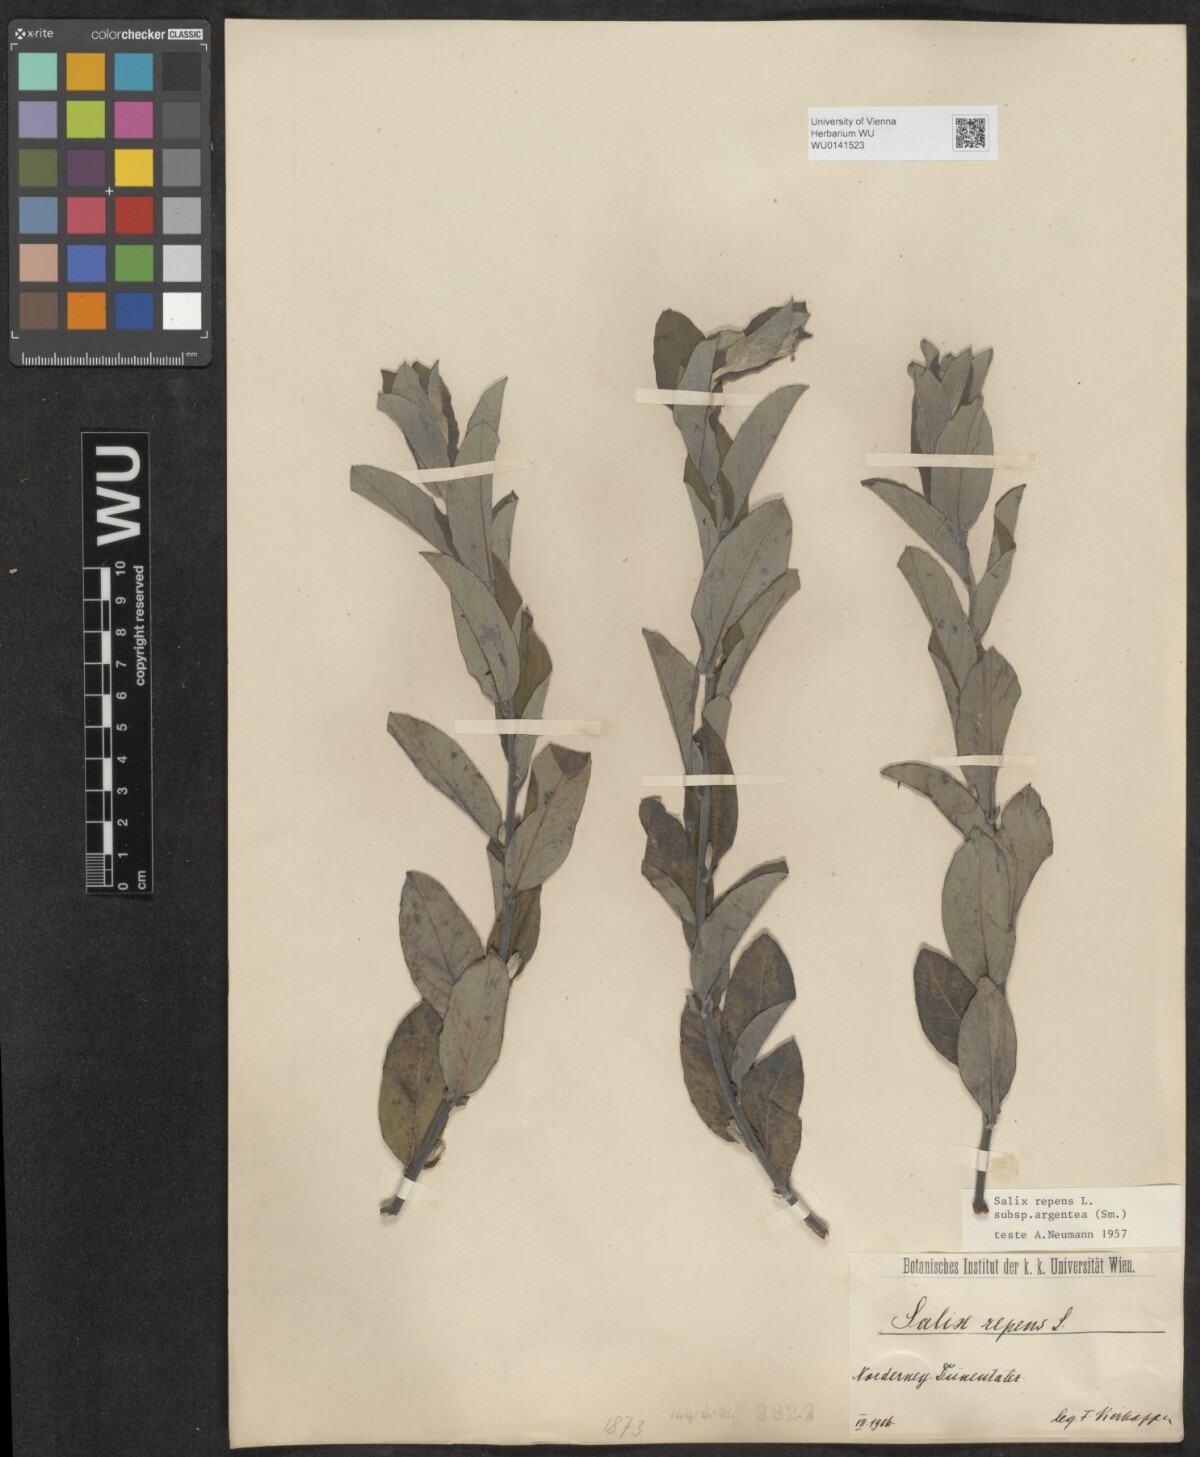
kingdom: Plantae
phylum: Tracheophyta
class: Magnoliopsida
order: Malpighiales
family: Salicaceae
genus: Salix
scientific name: Salix repens
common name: Creeping willow
